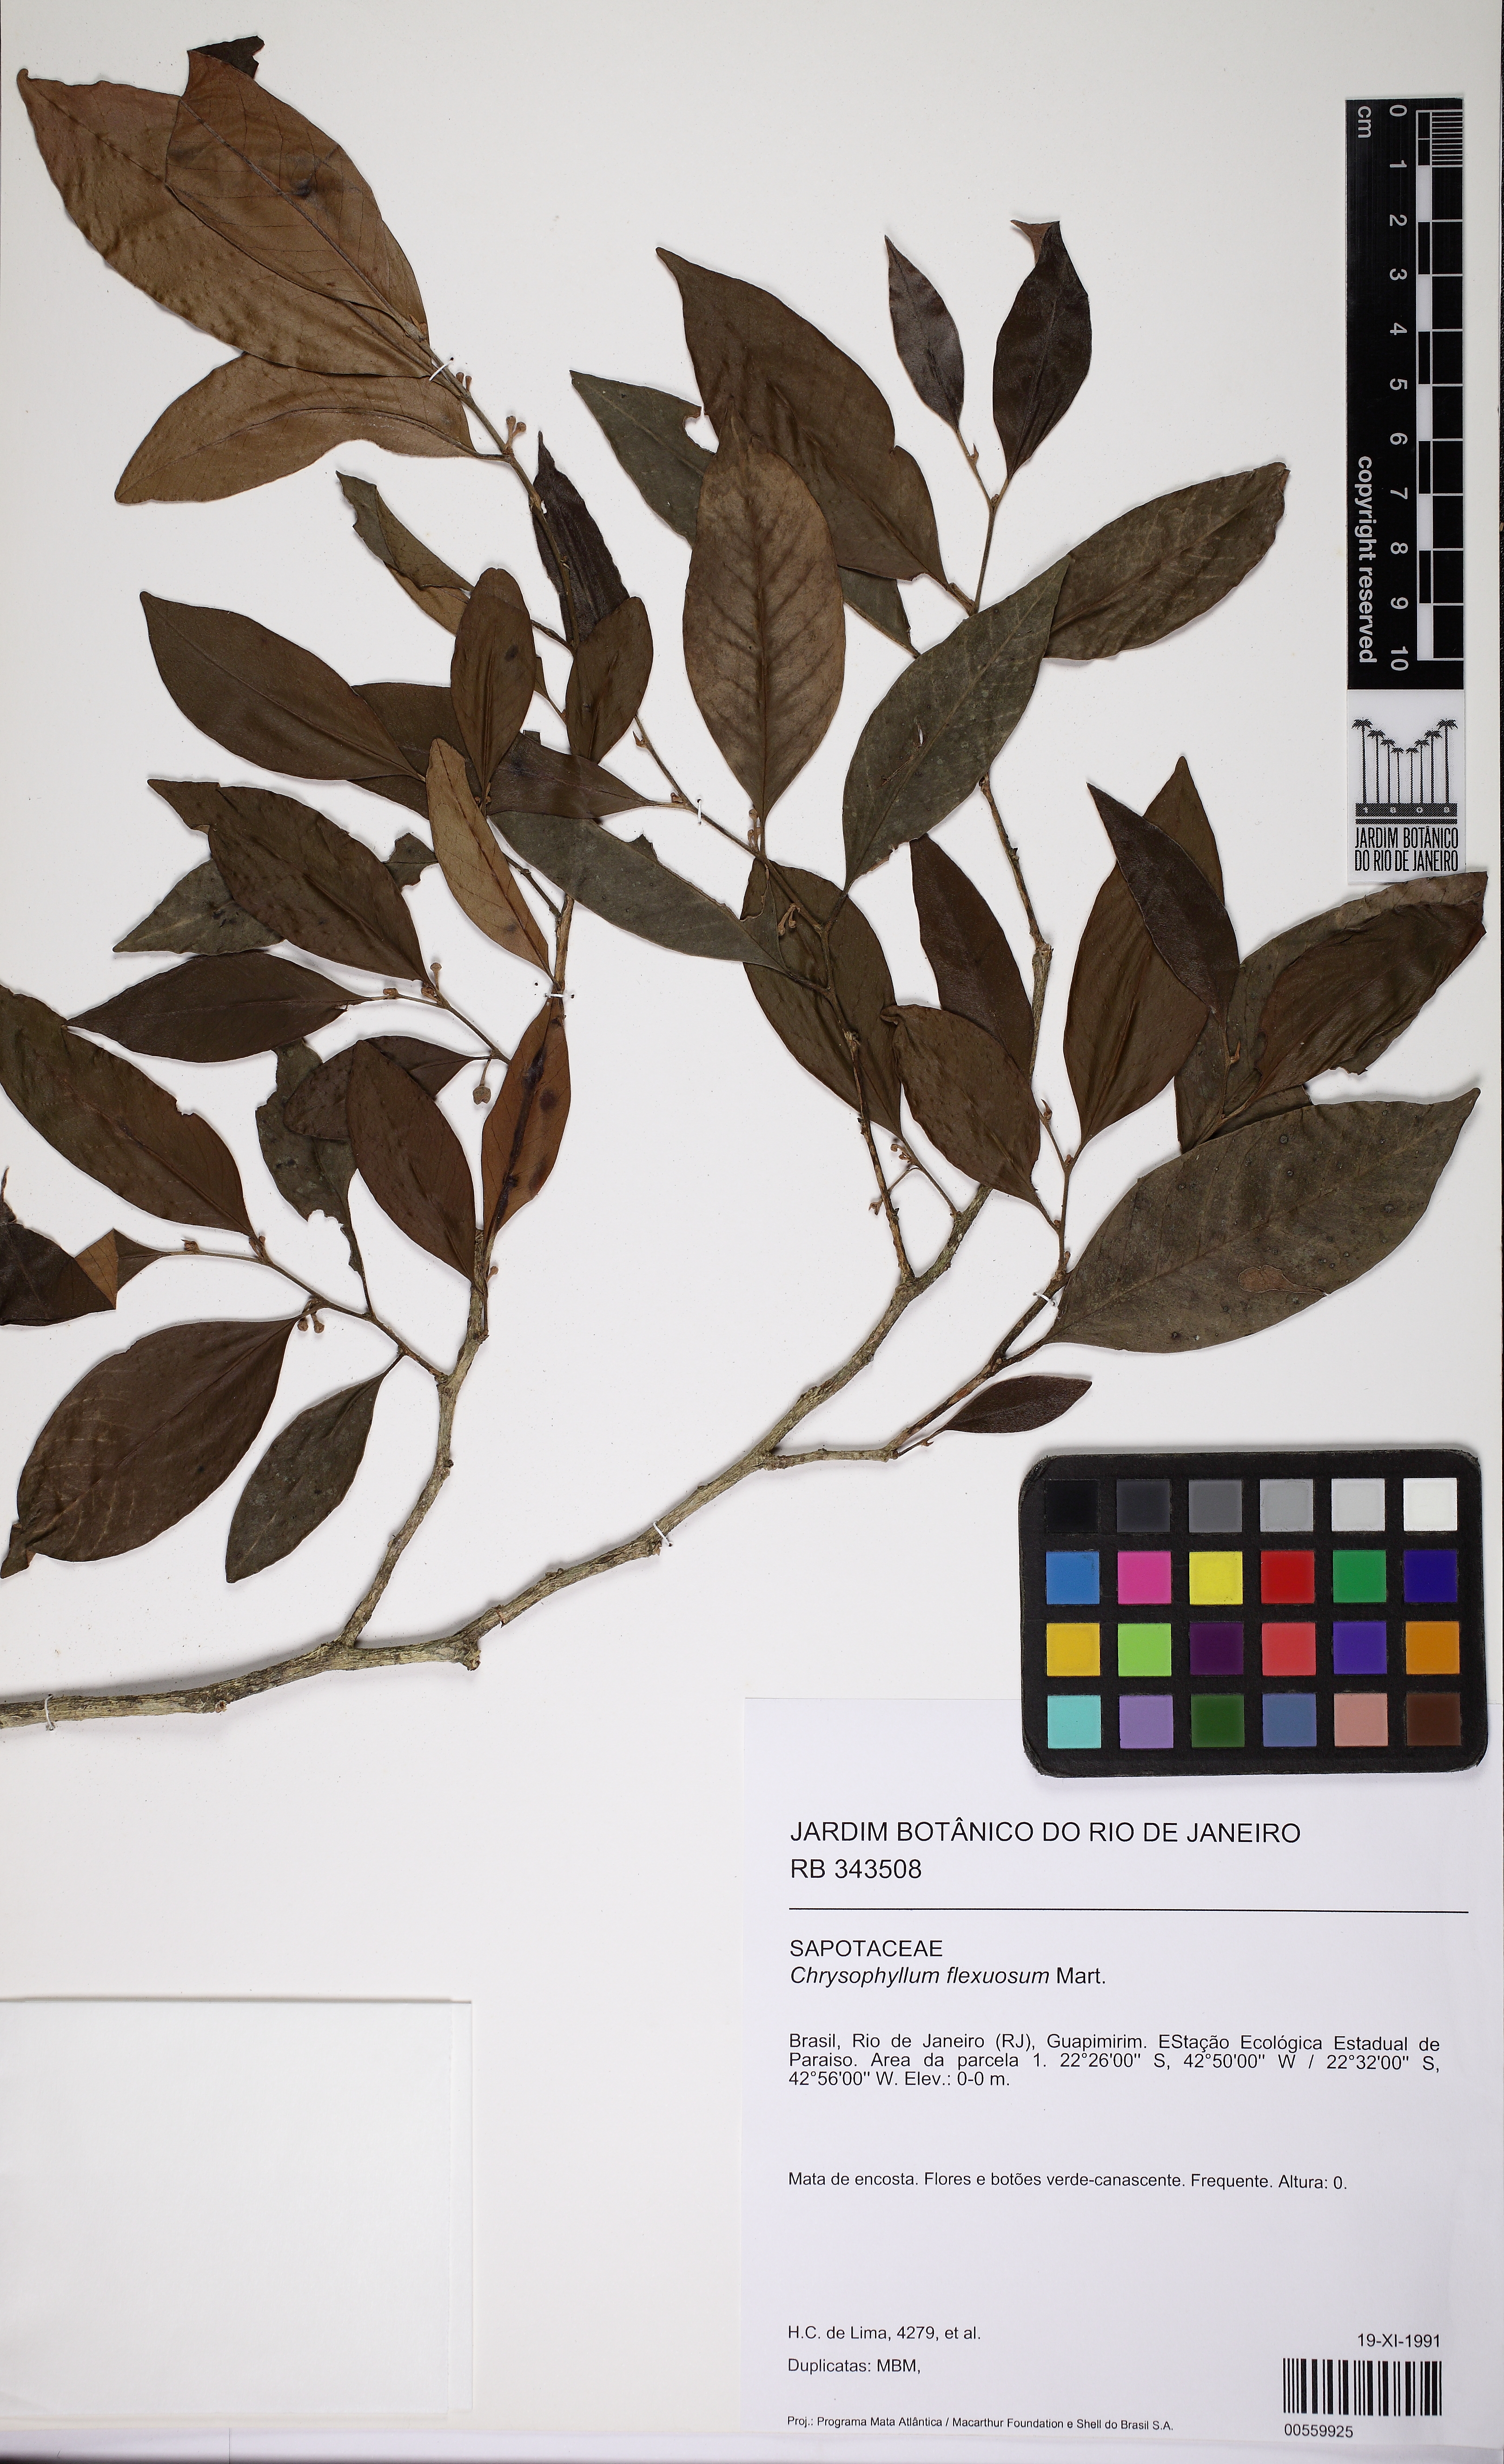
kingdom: Plantae
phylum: Tracheophyta
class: Magnoliopsida
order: Ericales
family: Sapotaceae
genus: Chrysophyllum
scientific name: Chrysophyllum flexuosum
